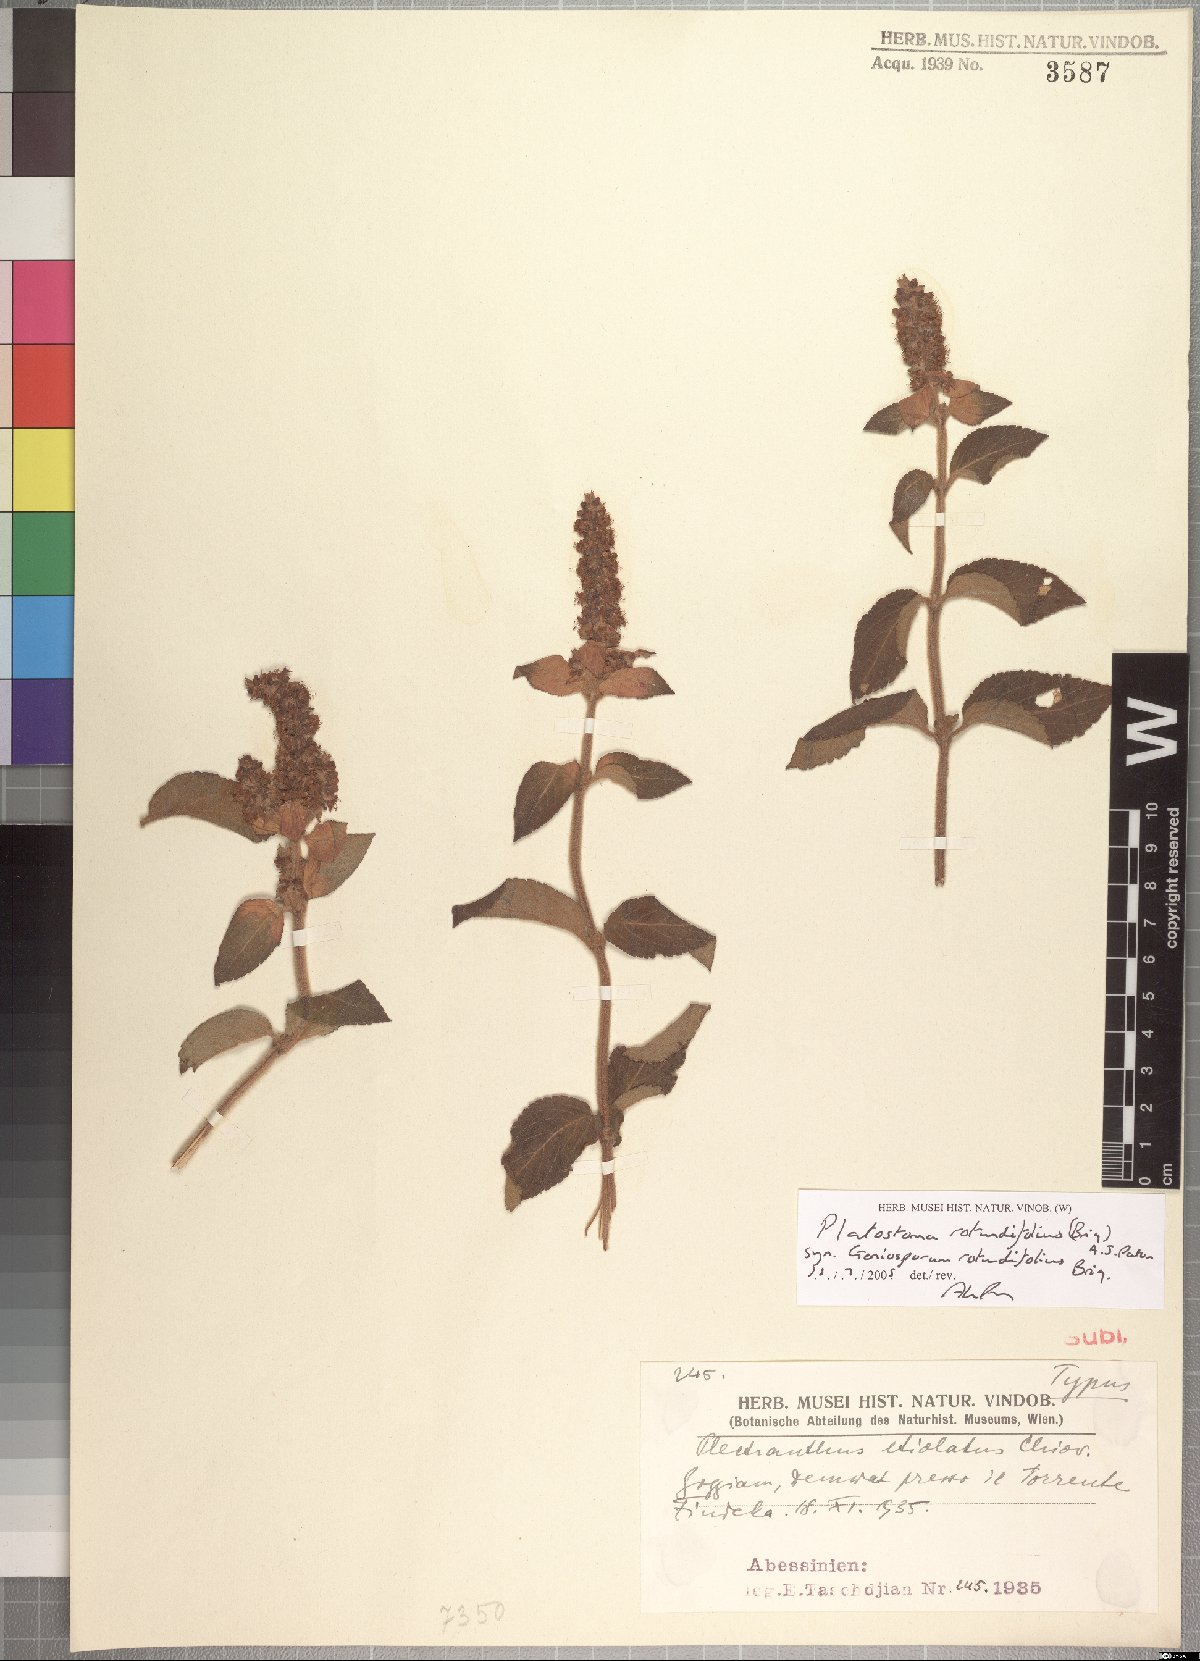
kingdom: Plantae
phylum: Tracheophyta
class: Magnoliopsida
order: Lamiales
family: Lamiaceae
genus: Platostoma
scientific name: Platostoma rotundifolium
